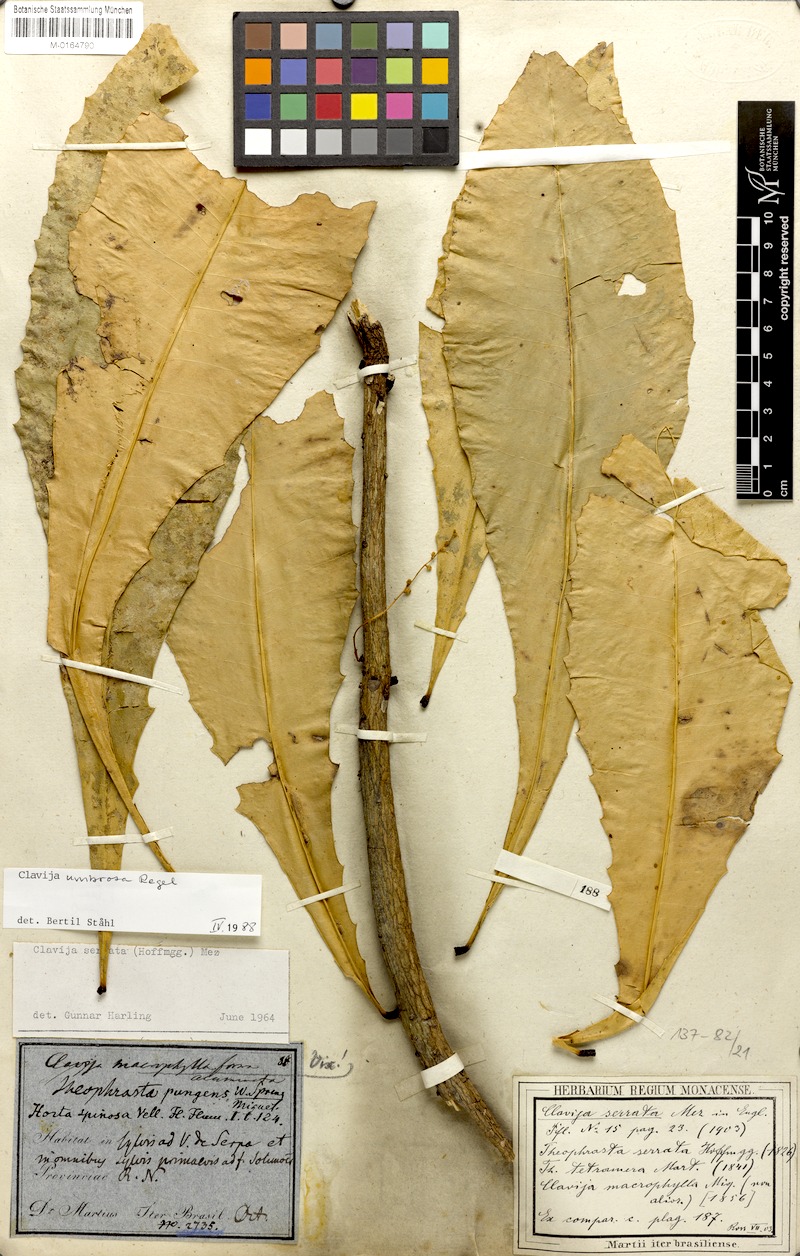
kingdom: Plantae
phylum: Tracheophyta
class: Magnoliopsida
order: Ericales
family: Primulaceae
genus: Clavija
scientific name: Clavija umbrosa
